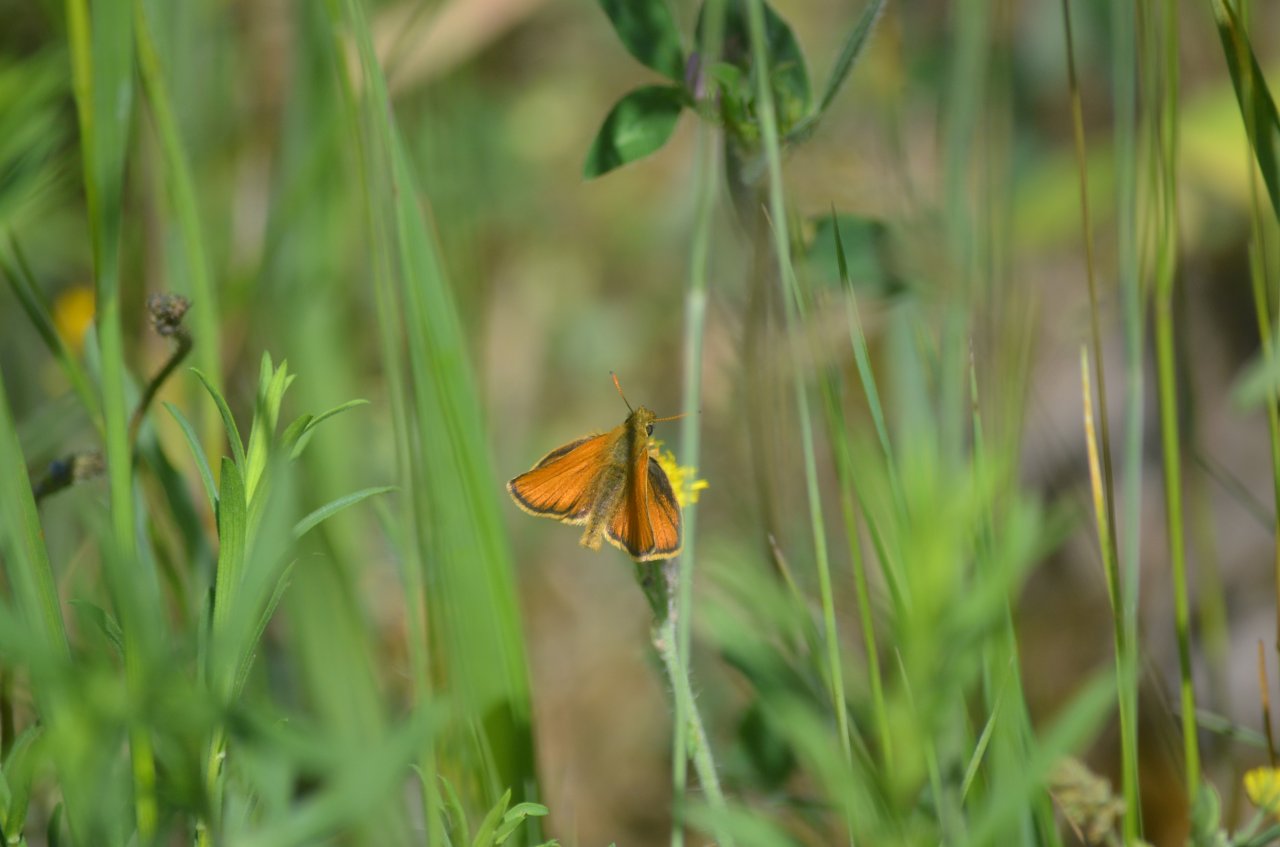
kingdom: Animalia
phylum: Arthropoda
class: Insecta
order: Lepidoptera
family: Hesperiidae
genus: Thymelicus
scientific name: Thymelicus lineola
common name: European Skipper
